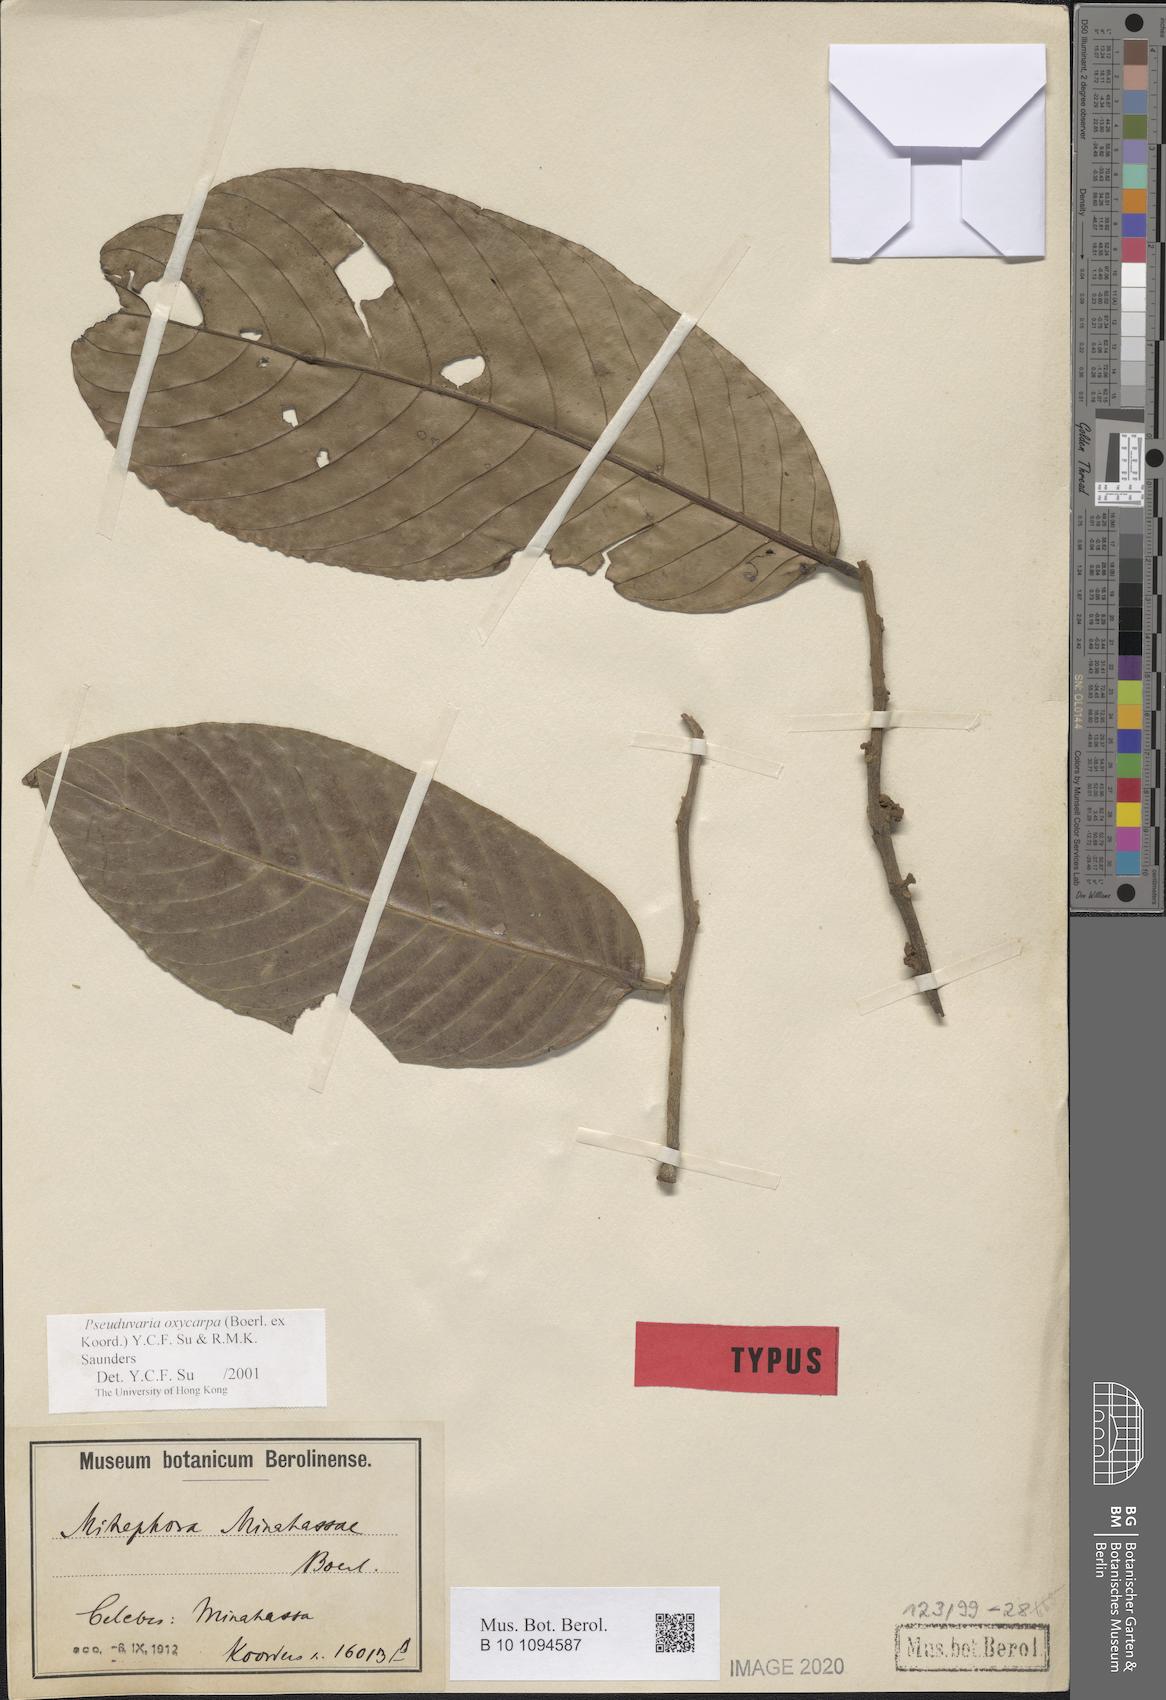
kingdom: Plantae
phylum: Tracheophyta
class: Magnoliopsida
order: Magnoliales
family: Annonaceae
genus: Pseuduvaria
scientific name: Pseuduvaria oxycarpa
